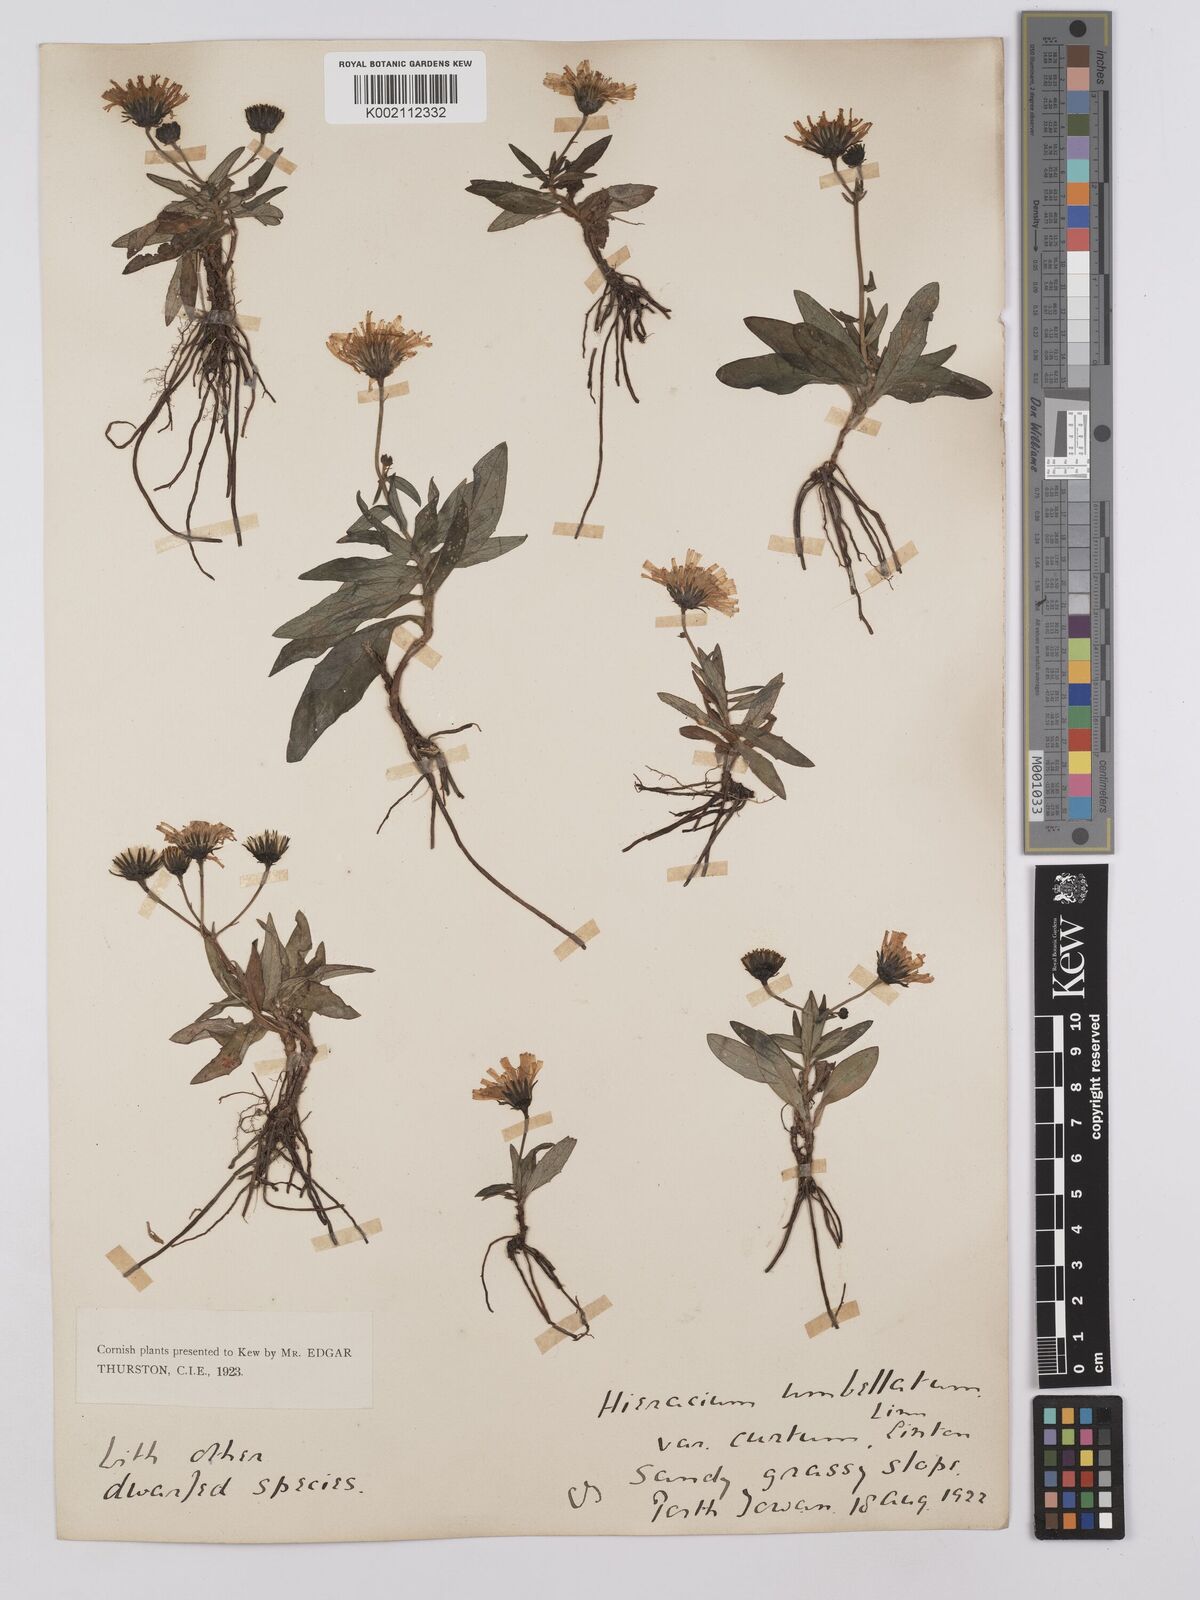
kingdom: Plantae
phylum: Tracheophyta
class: Magnoliopsida
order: Asterales
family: Asteraceae
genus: Hieracium
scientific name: Hieracium umbellatum
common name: Northern hawkweed
